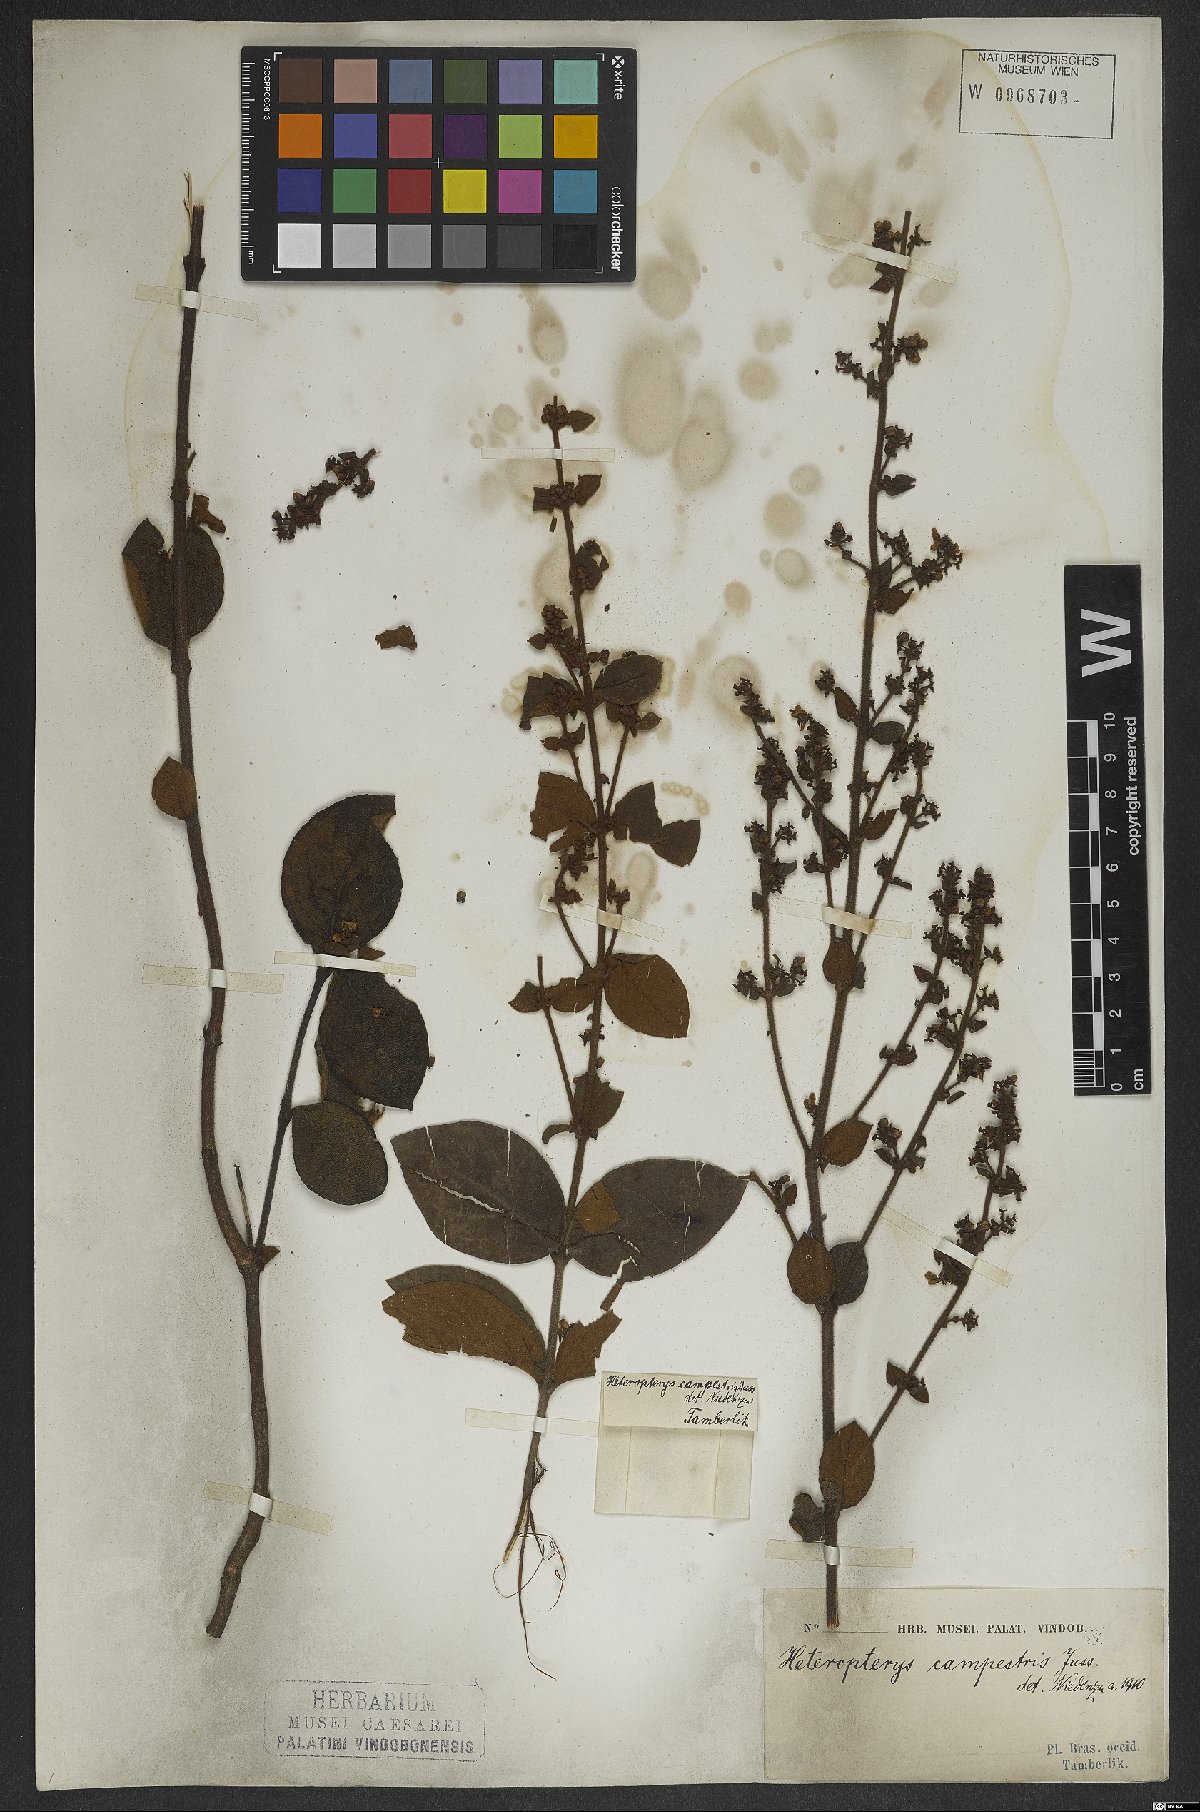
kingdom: Plantae
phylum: Tracheophyta
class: Magnoliopsida
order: Malpighiales
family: Malpighiaceae
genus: Heteropterys
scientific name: Heteropterys campestris
